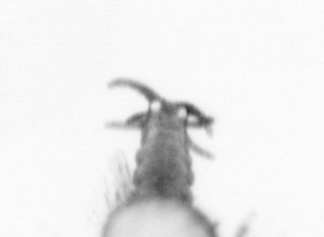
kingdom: Animalia
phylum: Annelida
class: Polychaeta
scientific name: Polychaeta
